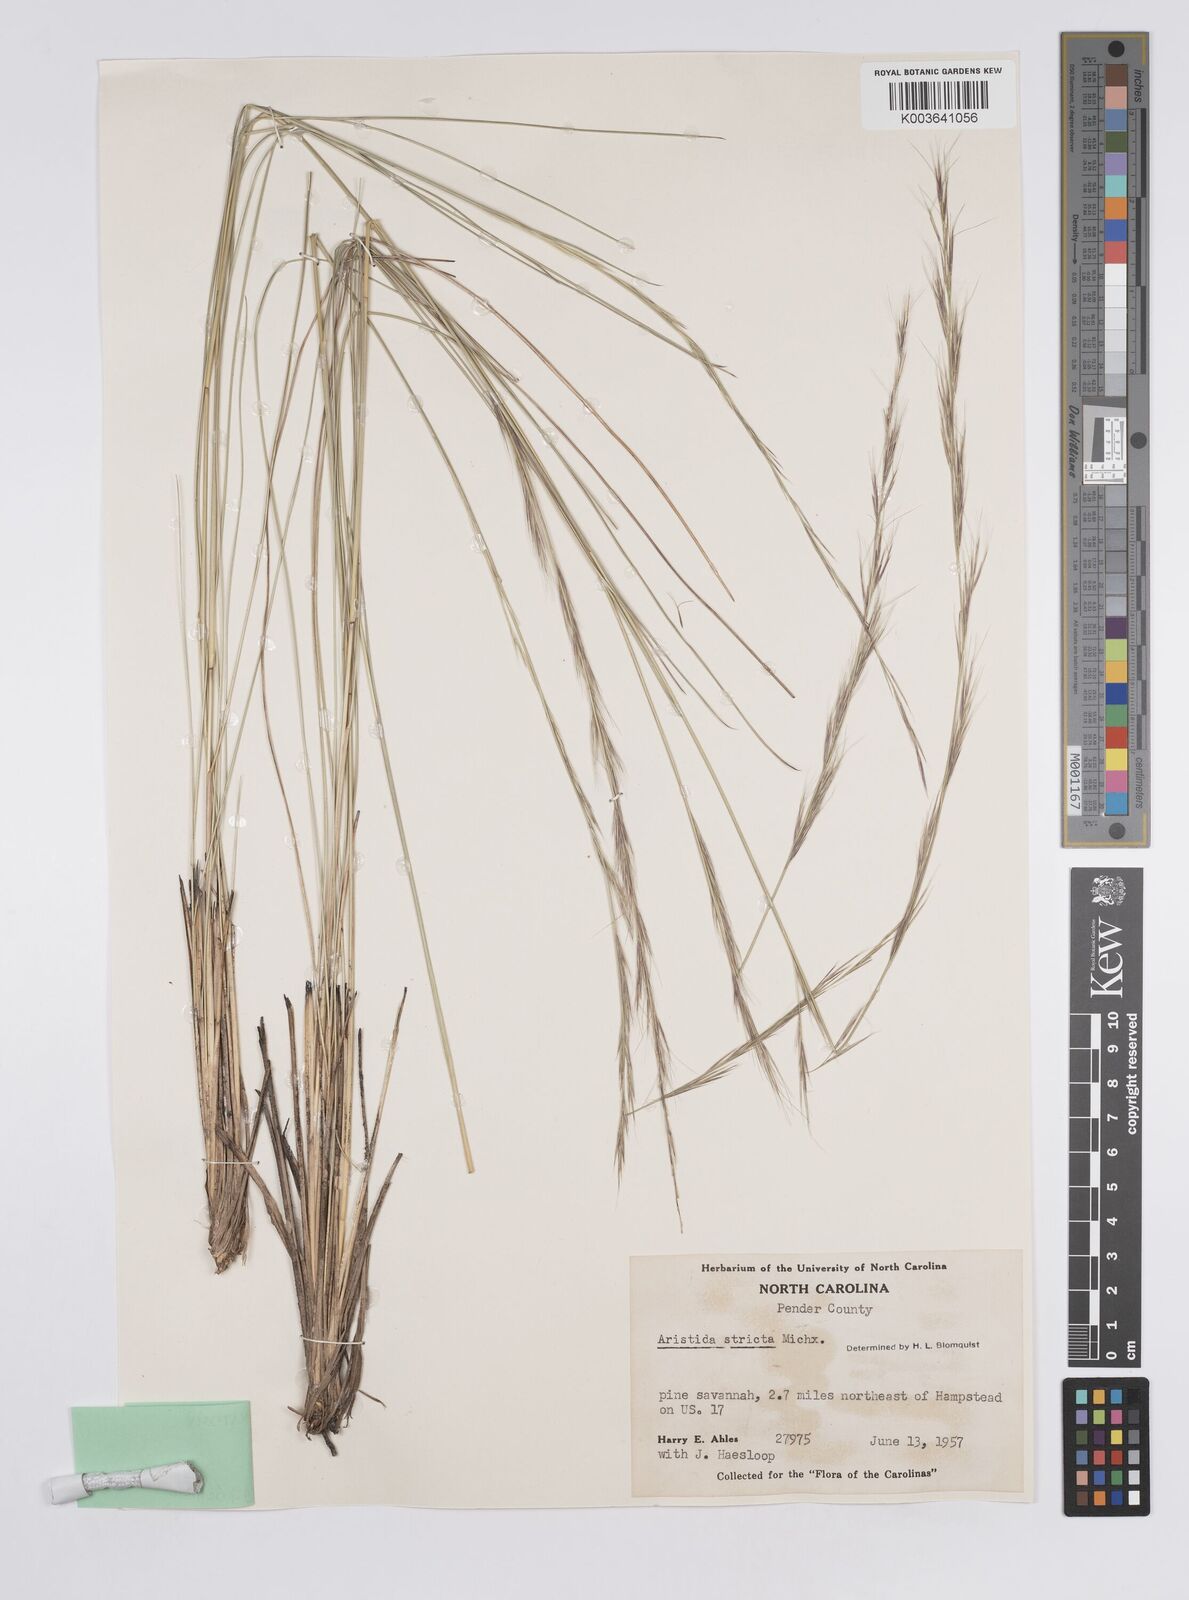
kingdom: Plantae
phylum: Tracheophyta
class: Liliopsida
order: Poales
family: Poaceae
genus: Aristida
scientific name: Aristida stricta
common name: Pineland three-awn
